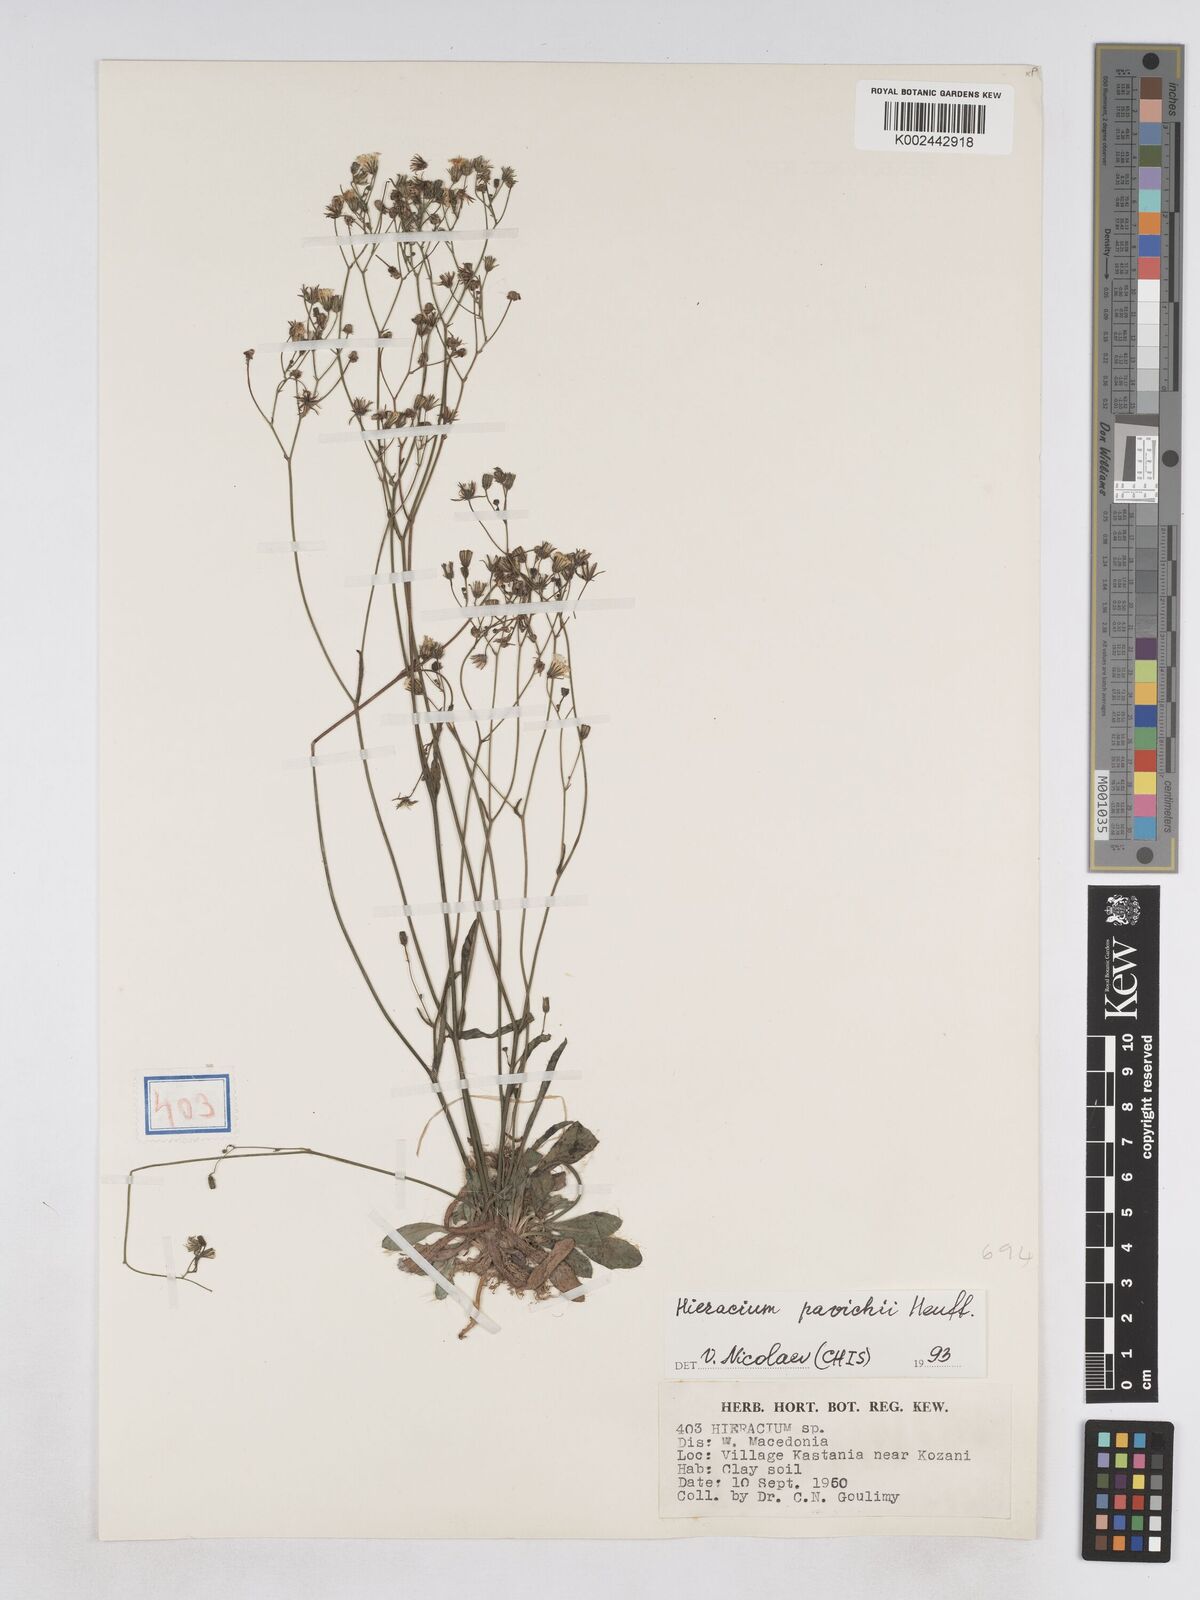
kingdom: Plantae
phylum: Tracheophyta
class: Magnoliopsida
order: Asterales
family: Asteraceae
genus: Pilosella
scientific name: Pilosella pavichii
